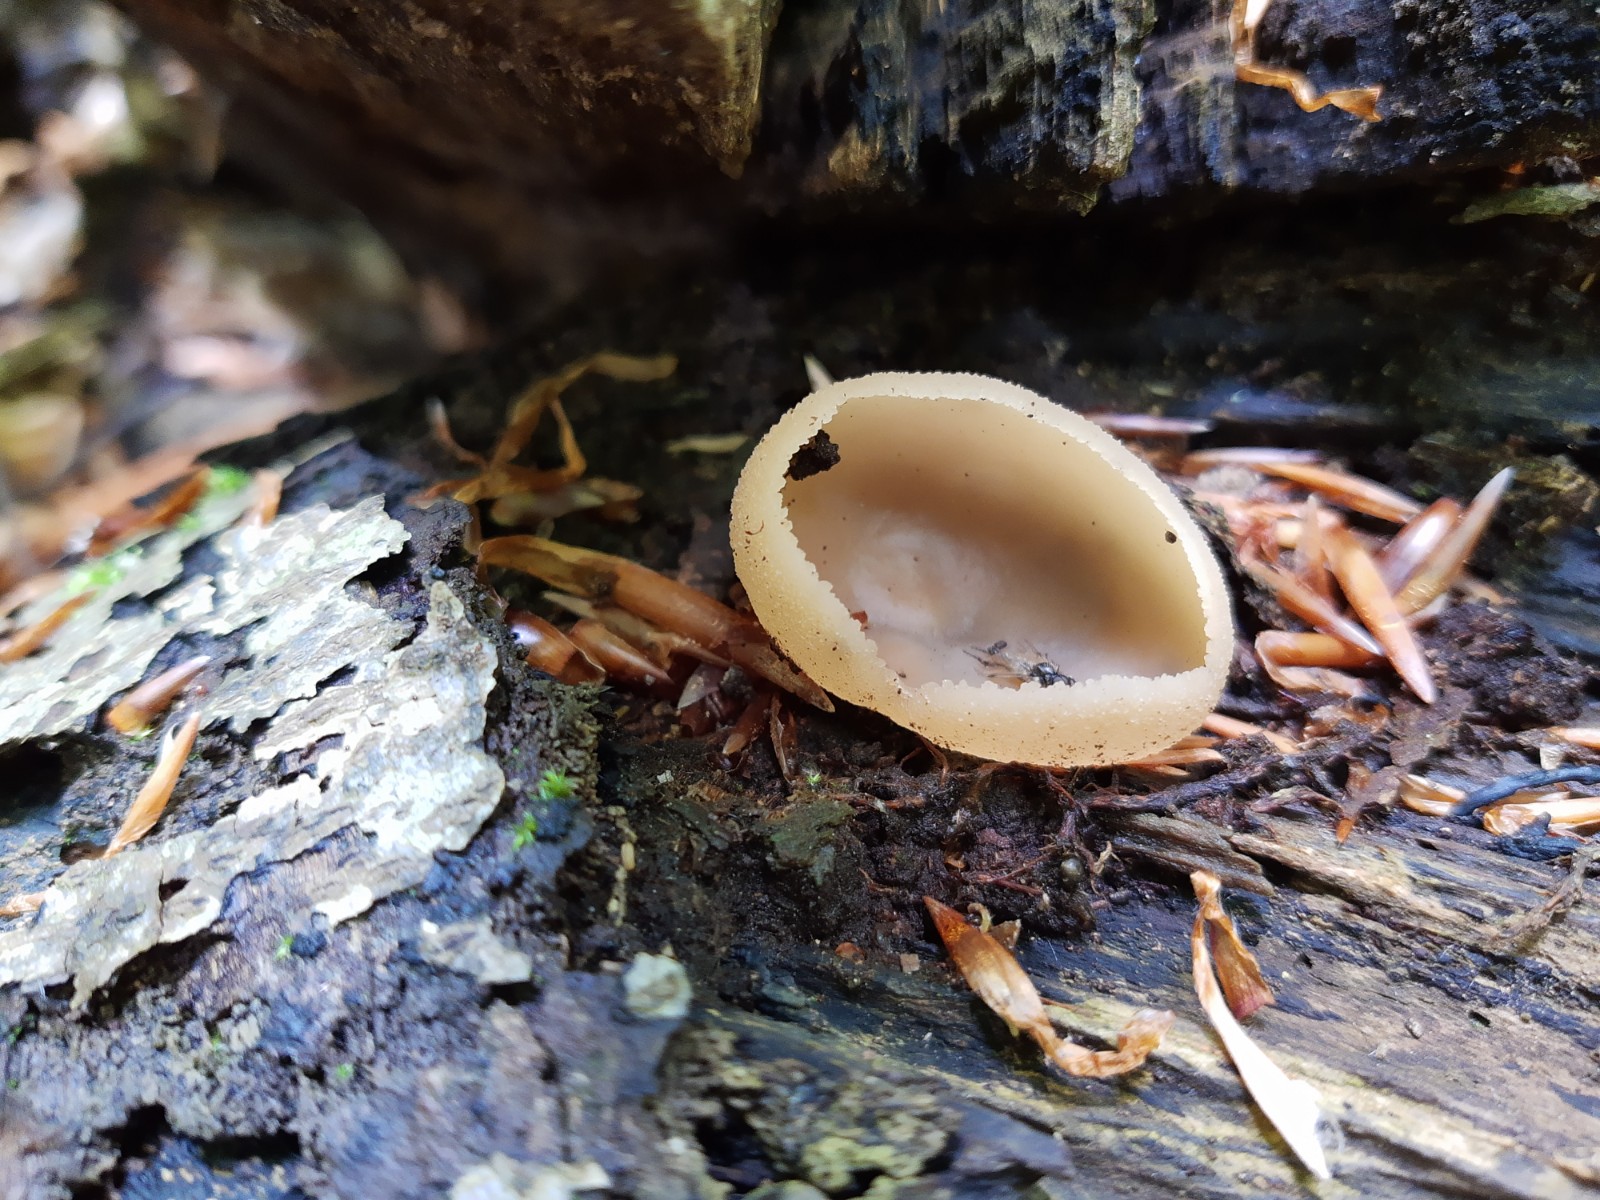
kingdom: Fungi
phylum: Ascomycota
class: Pezizomycetes
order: Pezizales
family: Pezizaceae
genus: Peziza
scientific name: Peziza varia
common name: Ved-bægersvamp
